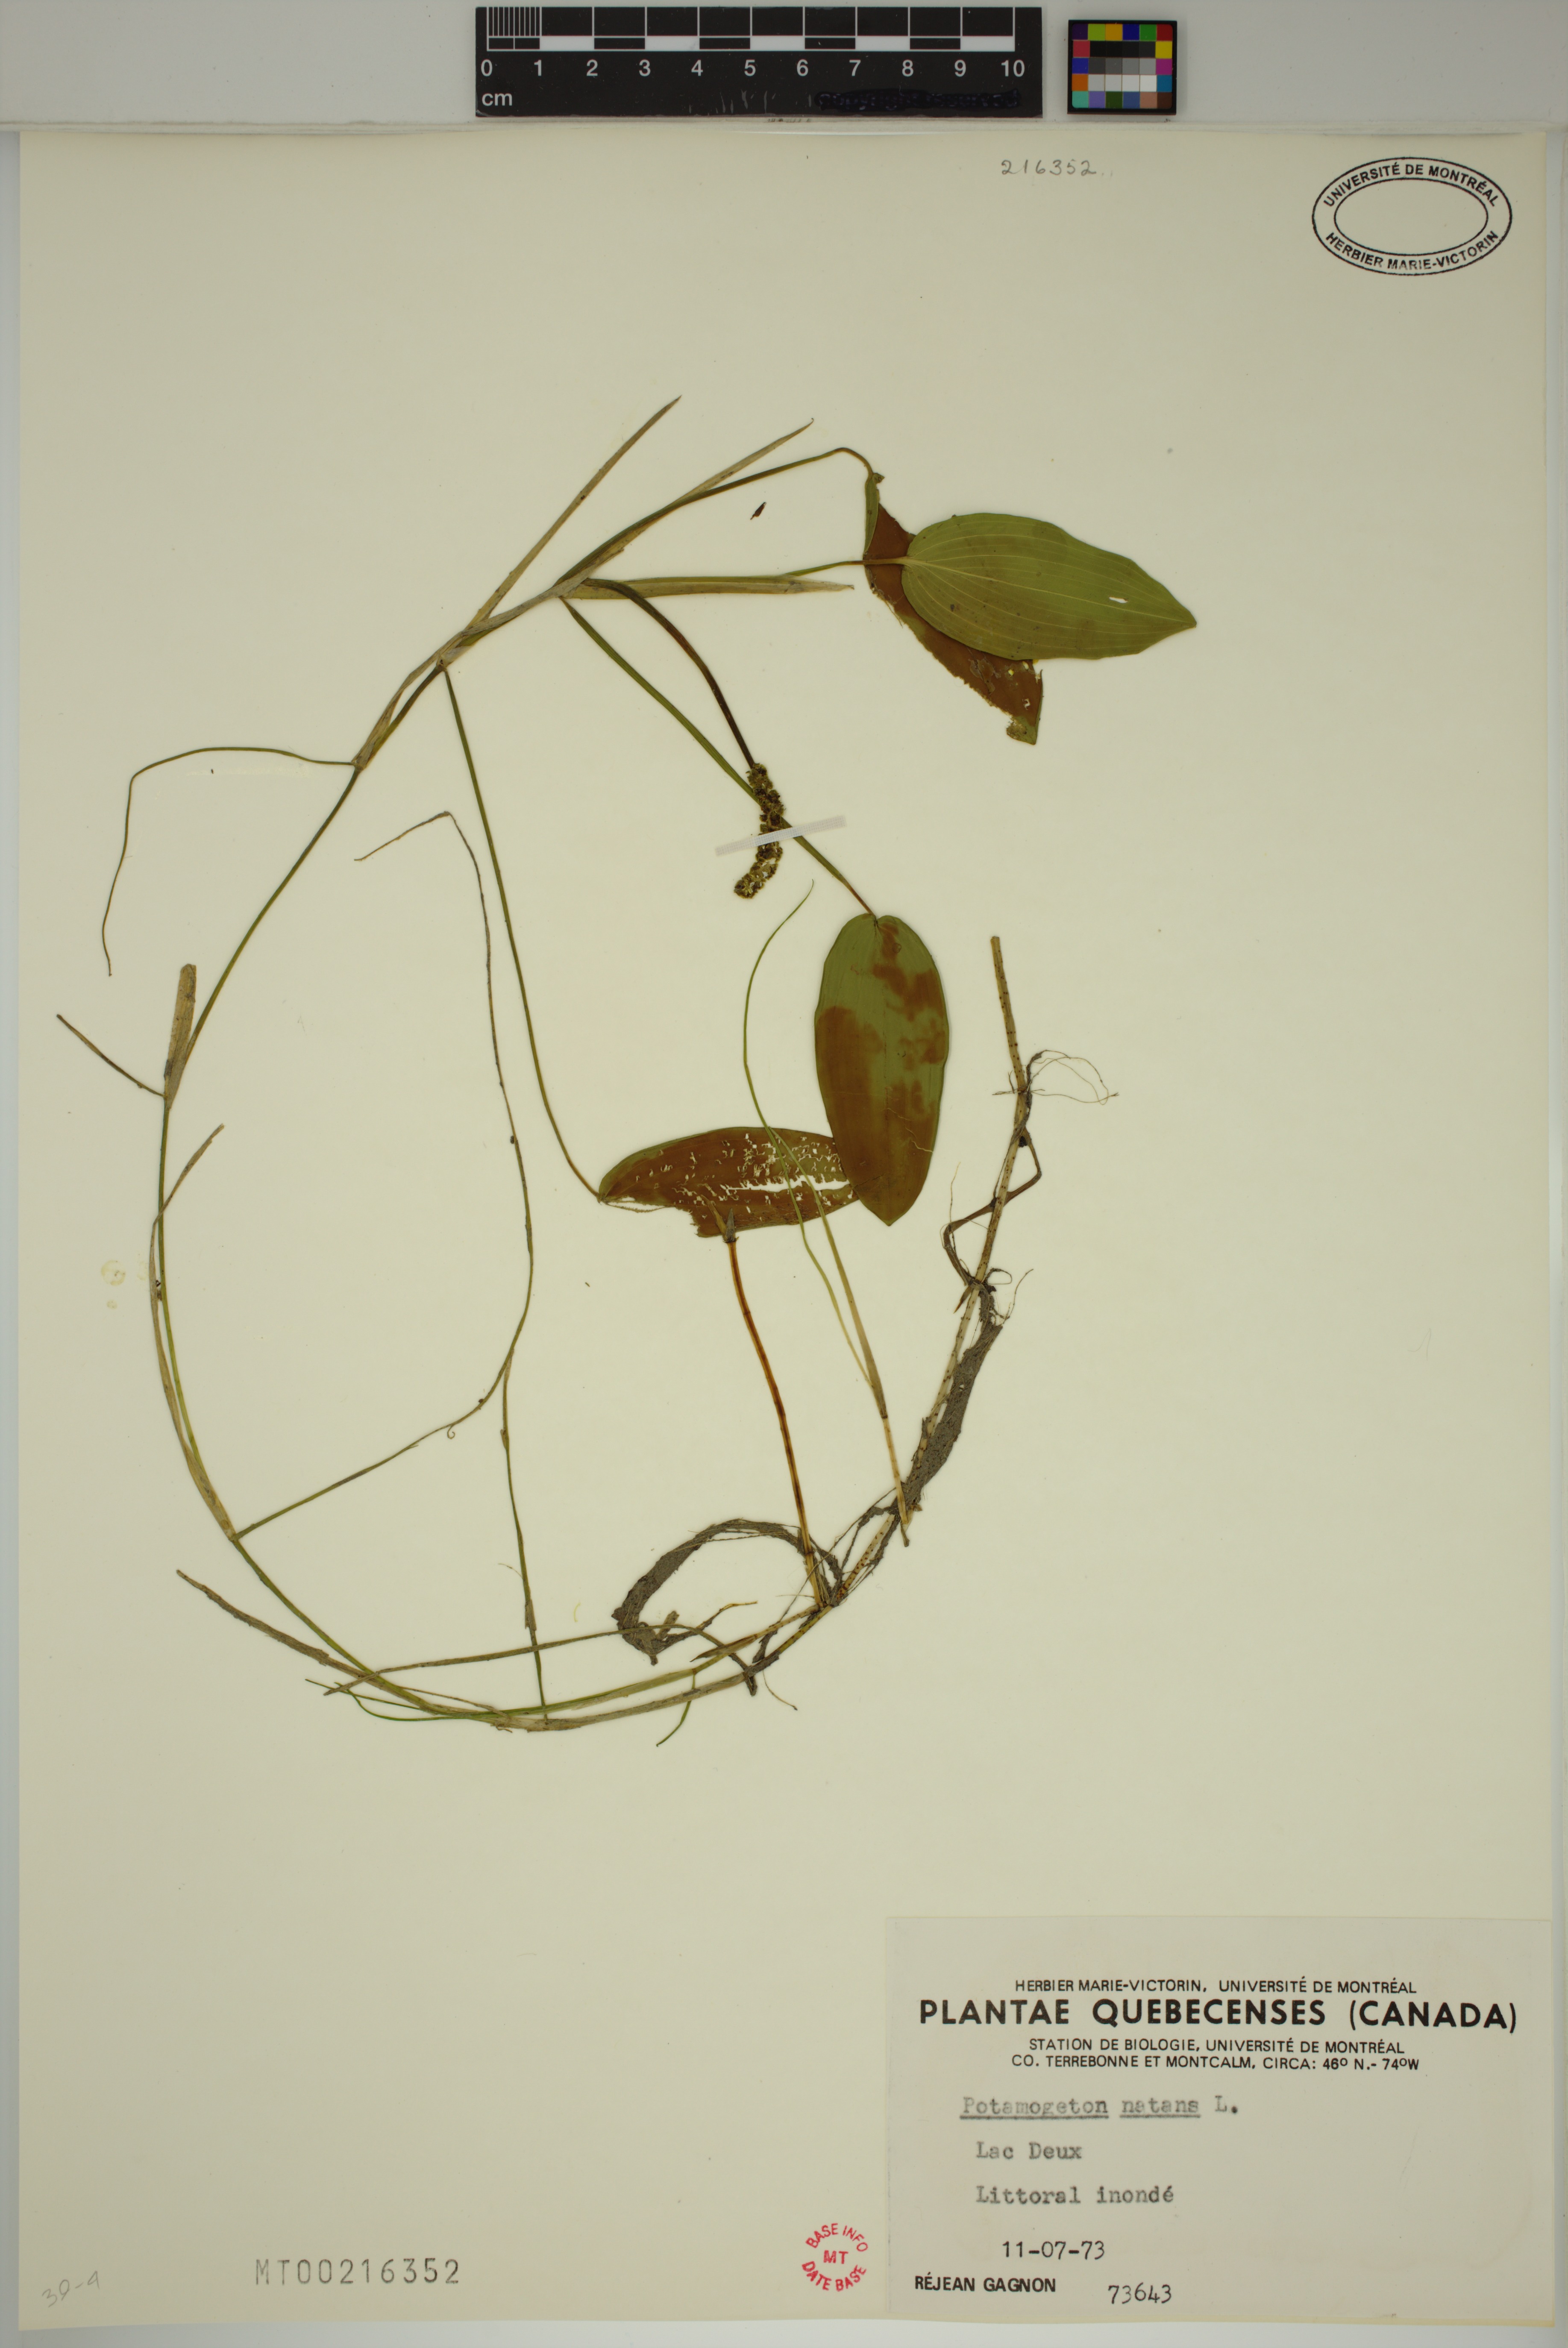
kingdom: Plantae
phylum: Tracheophyta
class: Liliopsida
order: Alismatales
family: Potamogetonaceae
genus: Potamogeton
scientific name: Potamogeton natans
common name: Broad-leaved pondweed
